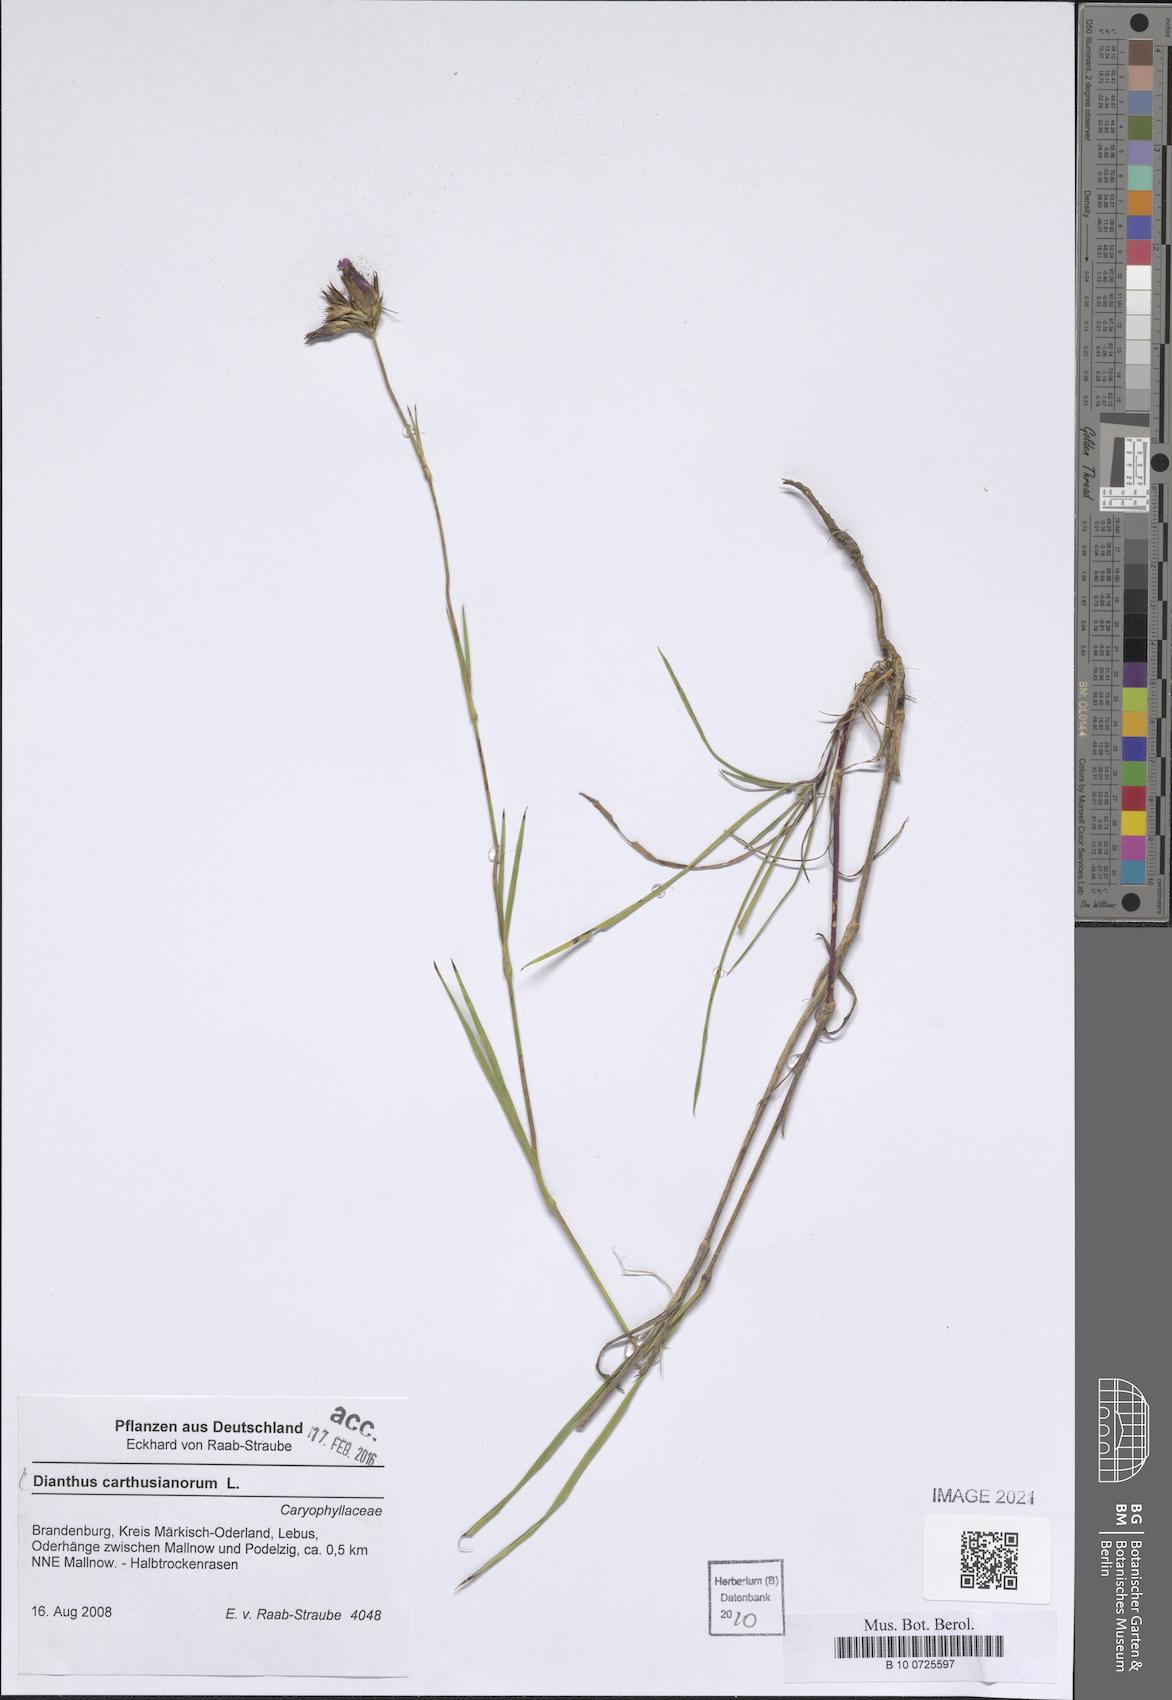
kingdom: Plantae
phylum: Tracheophyta
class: Magnoliopsida
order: Caryophyllales
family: Caryophyllaceae
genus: Dianthus
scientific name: Dianthus carthusianorum
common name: Carthusian pink
